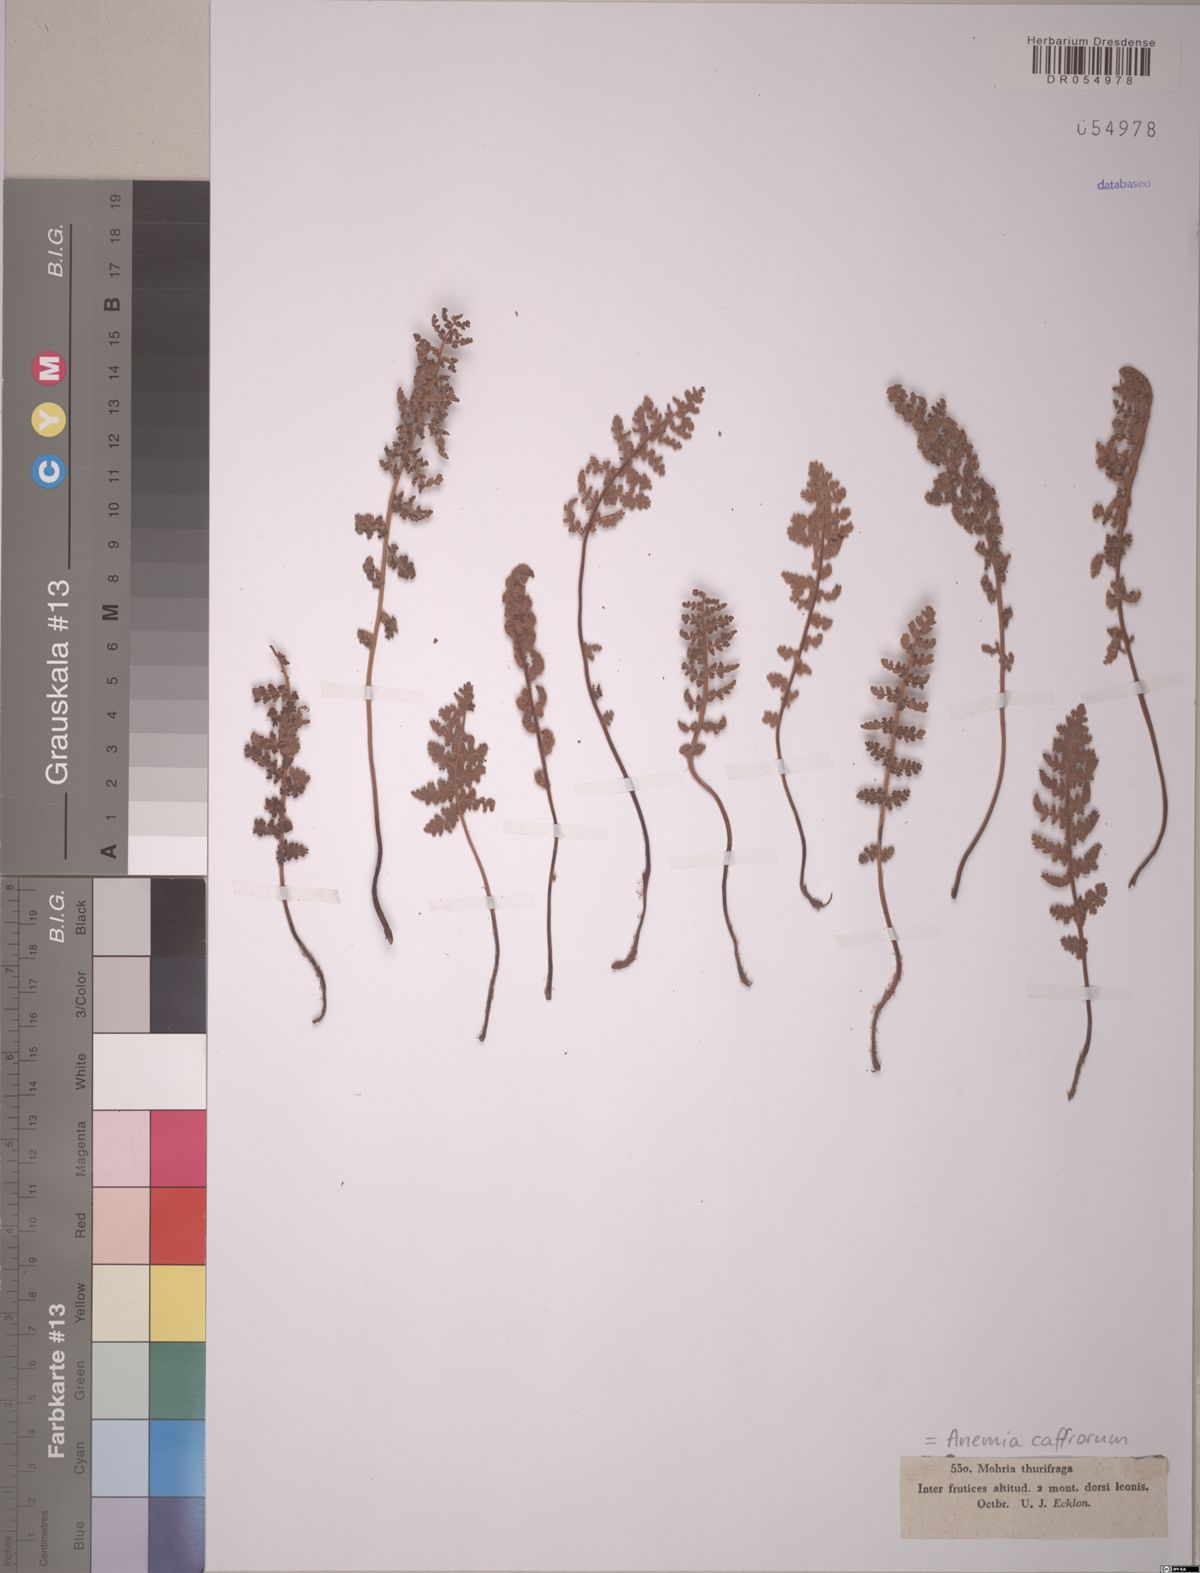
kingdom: Plantae
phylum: Tracheophyta
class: Polypodiopsida
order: Schizaeales
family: Anemiaceae
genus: Anemia
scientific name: Anemia caffrorum
